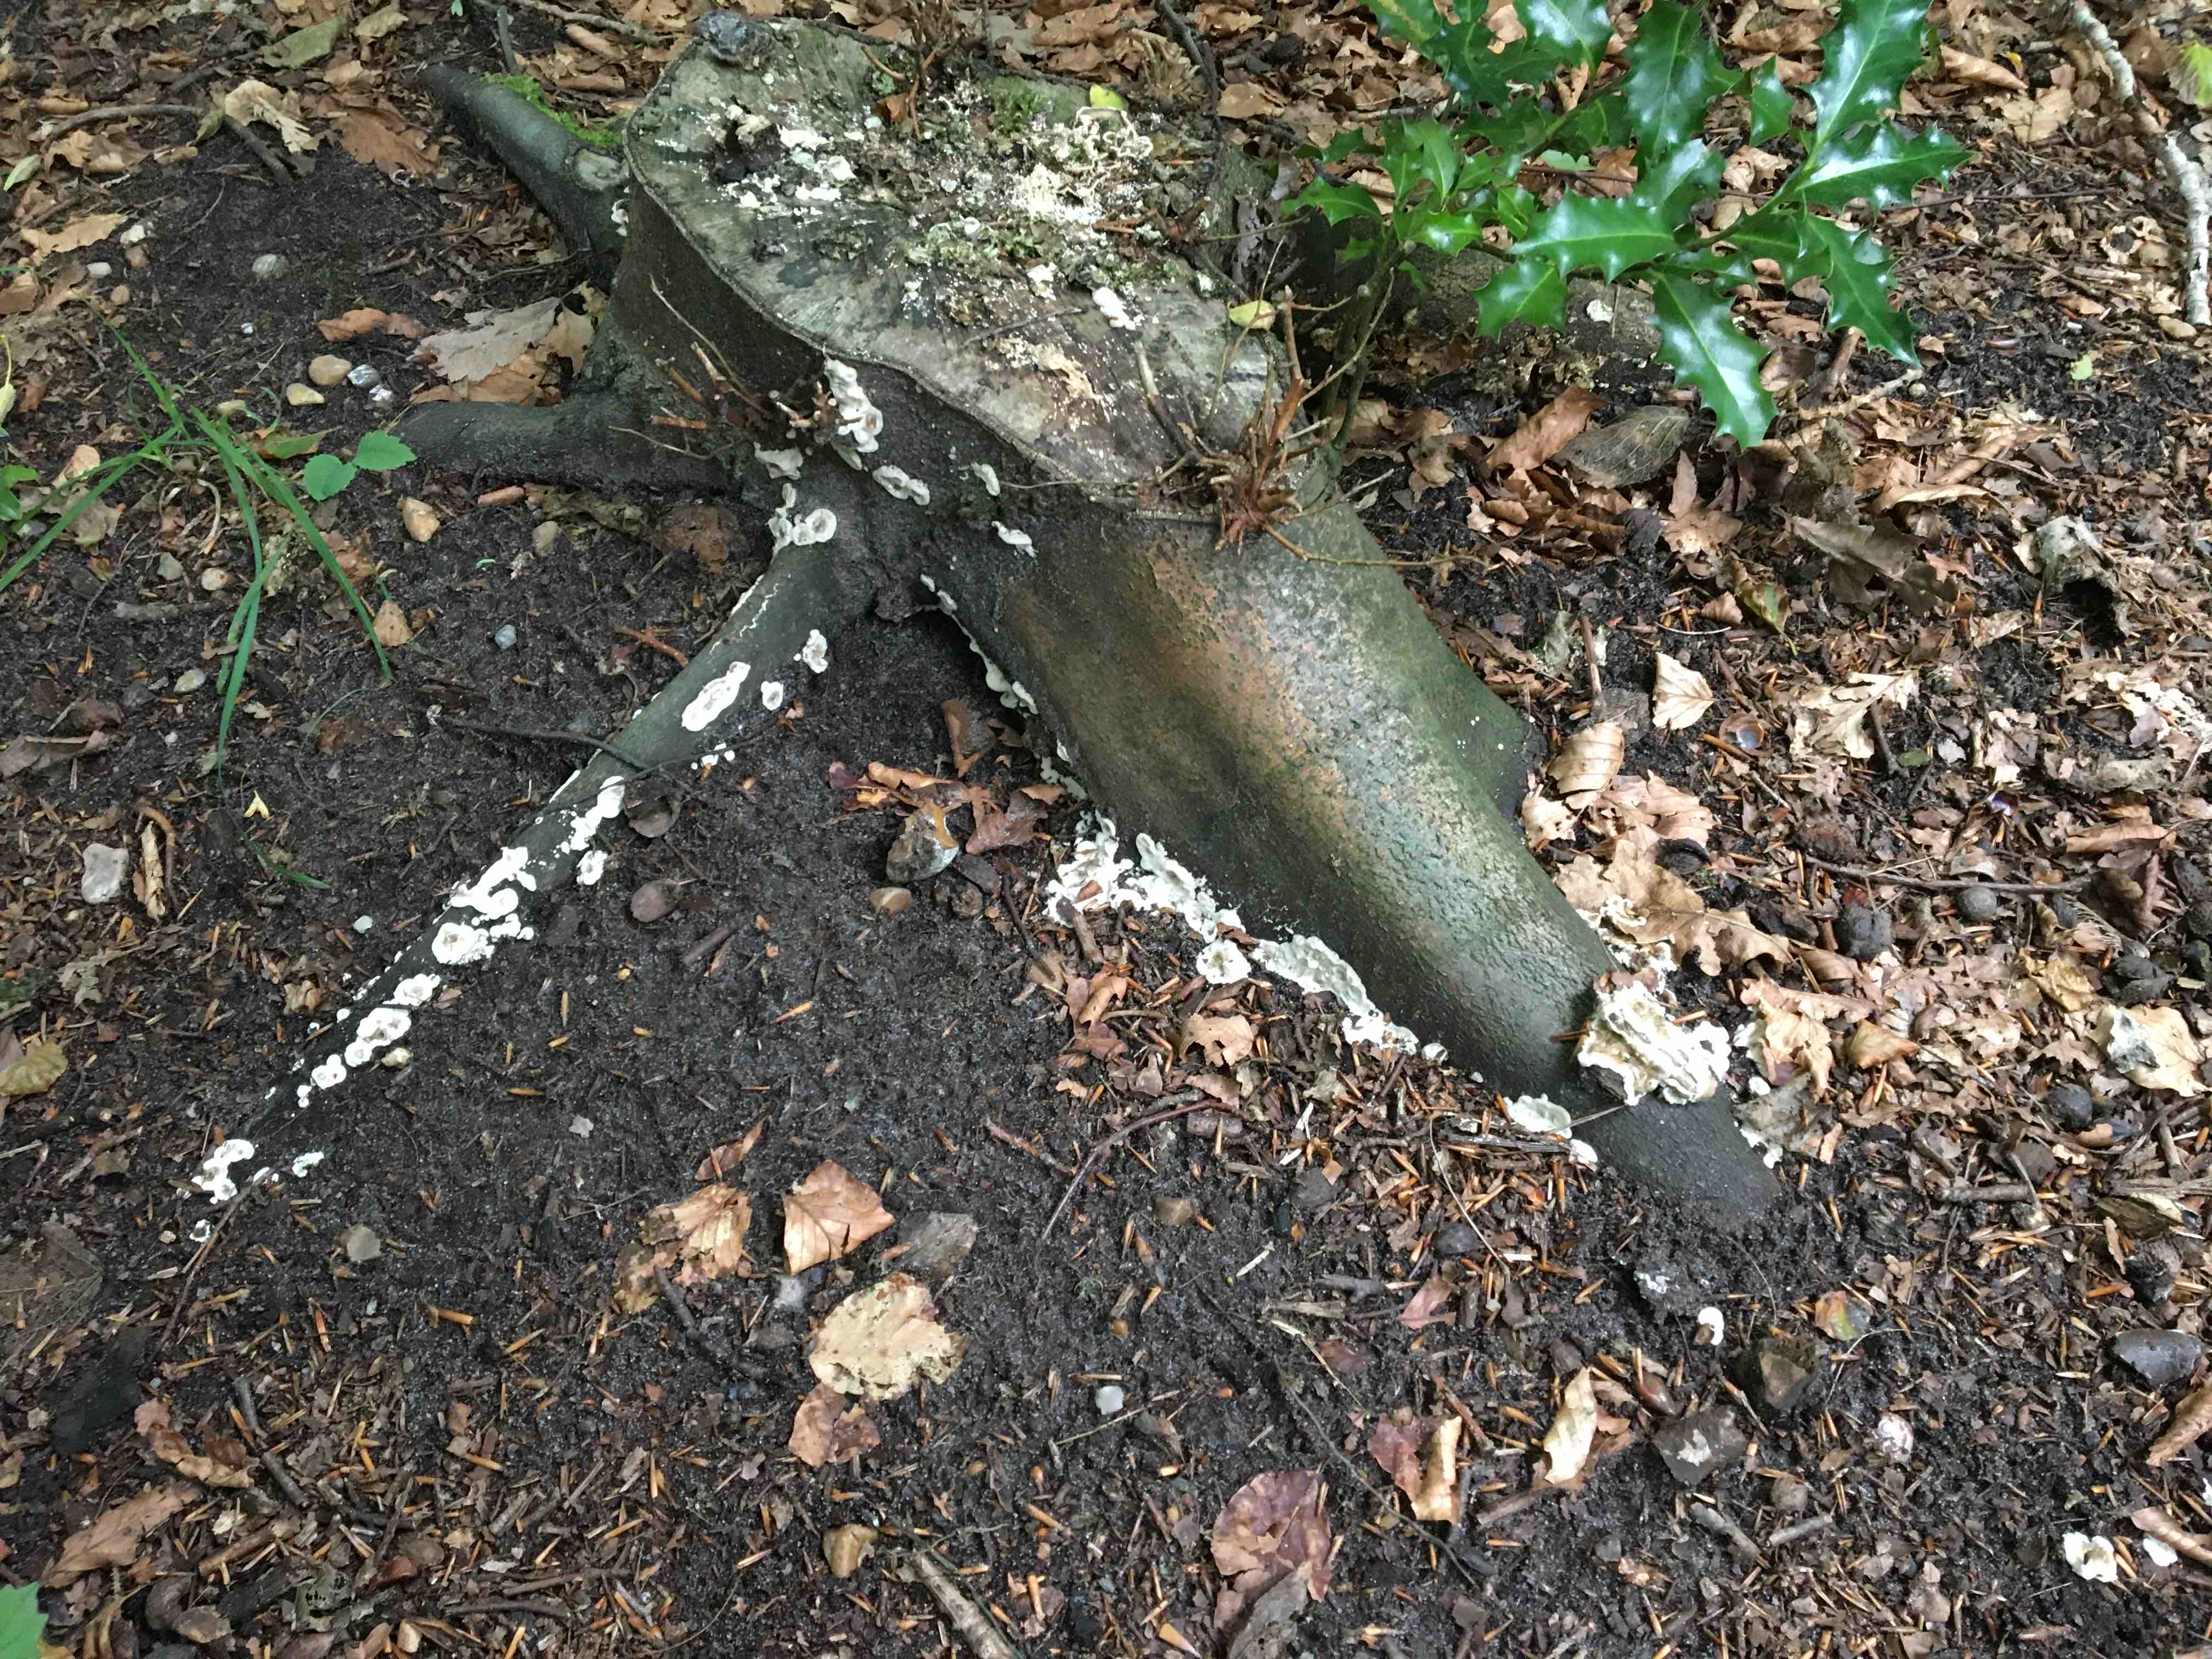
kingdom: Fungi
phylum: Basidiomycota
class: Agaricomycetes
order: Polyporales
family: Phanerochaetaceae
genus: Bjerkandera
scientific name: Bjerkandera adusta
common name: sveden sodporesvamp
